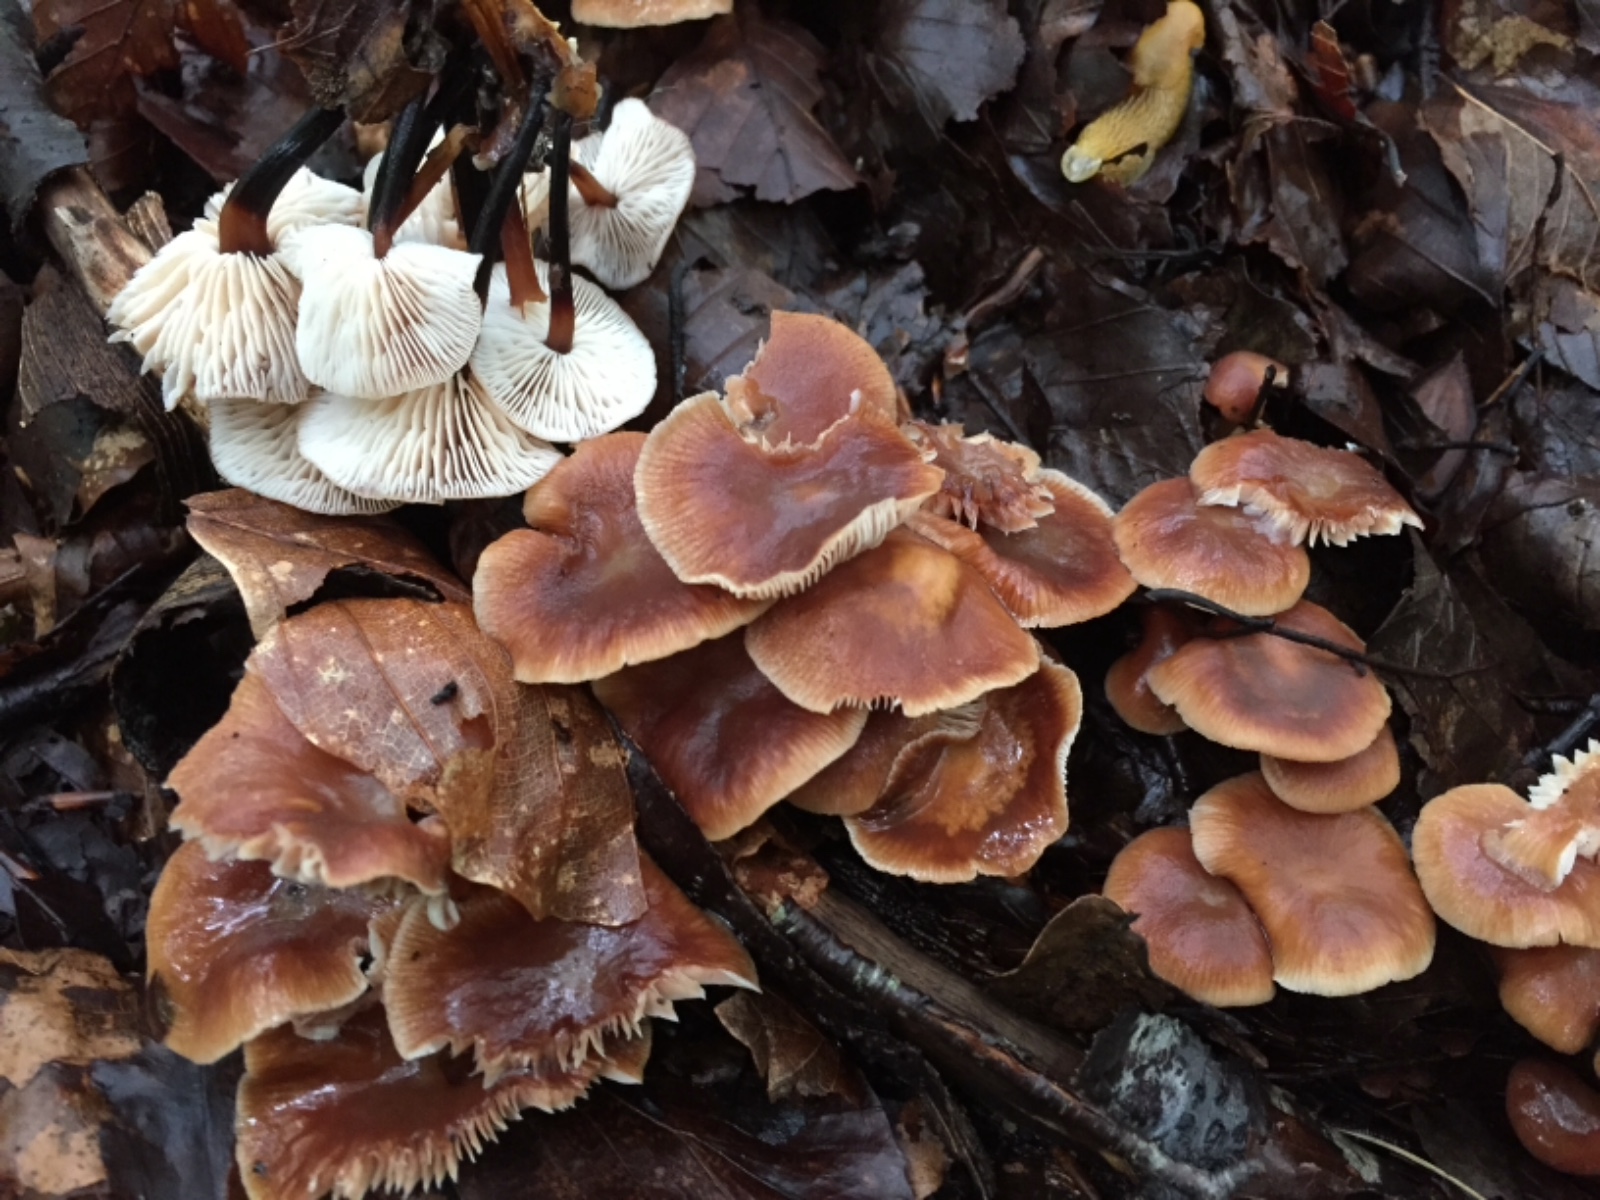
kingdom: Fungi
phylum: Basidiomycota
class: Agaricomycetes
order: Agaricales
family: Omphalotaceae
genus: Gymnopus
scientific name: Gymnopus brassicolens
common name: kål-fladhat
